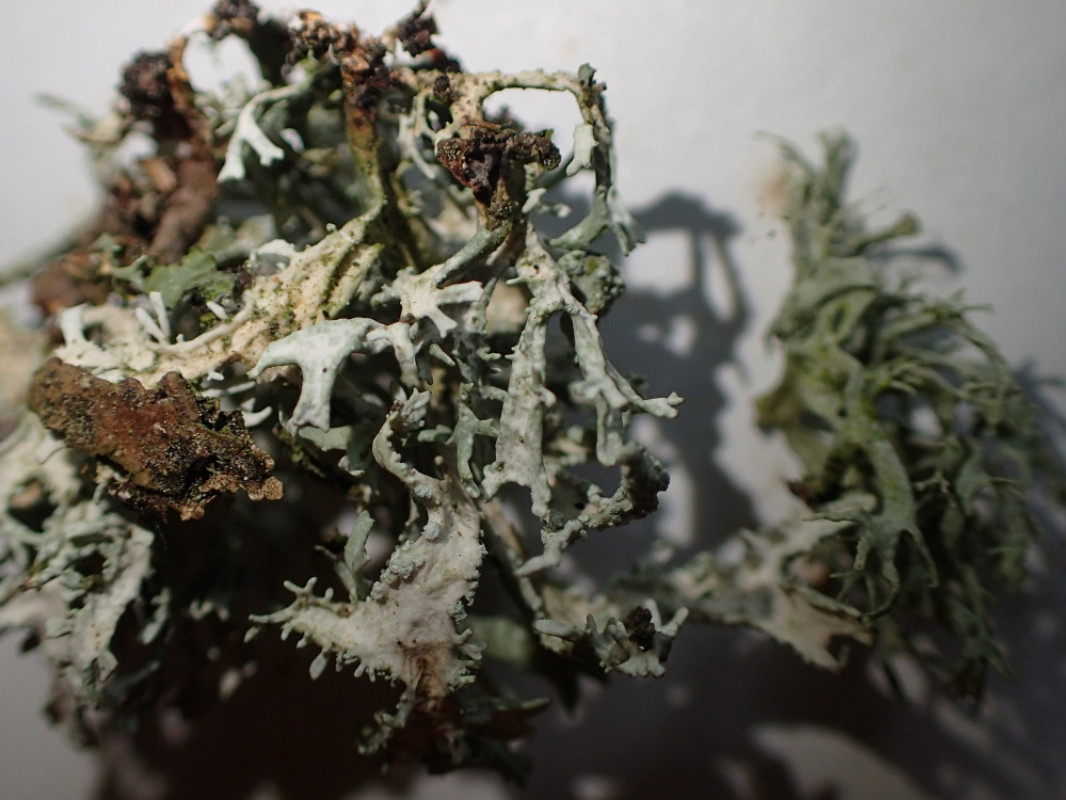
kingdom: Fungi
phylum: Ascomycota
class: Lecanoromycetes
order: Lecanorales
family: Parmeliaceae
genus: Evernia
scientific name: Evernia prunastri
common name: almindelig slåenlav
